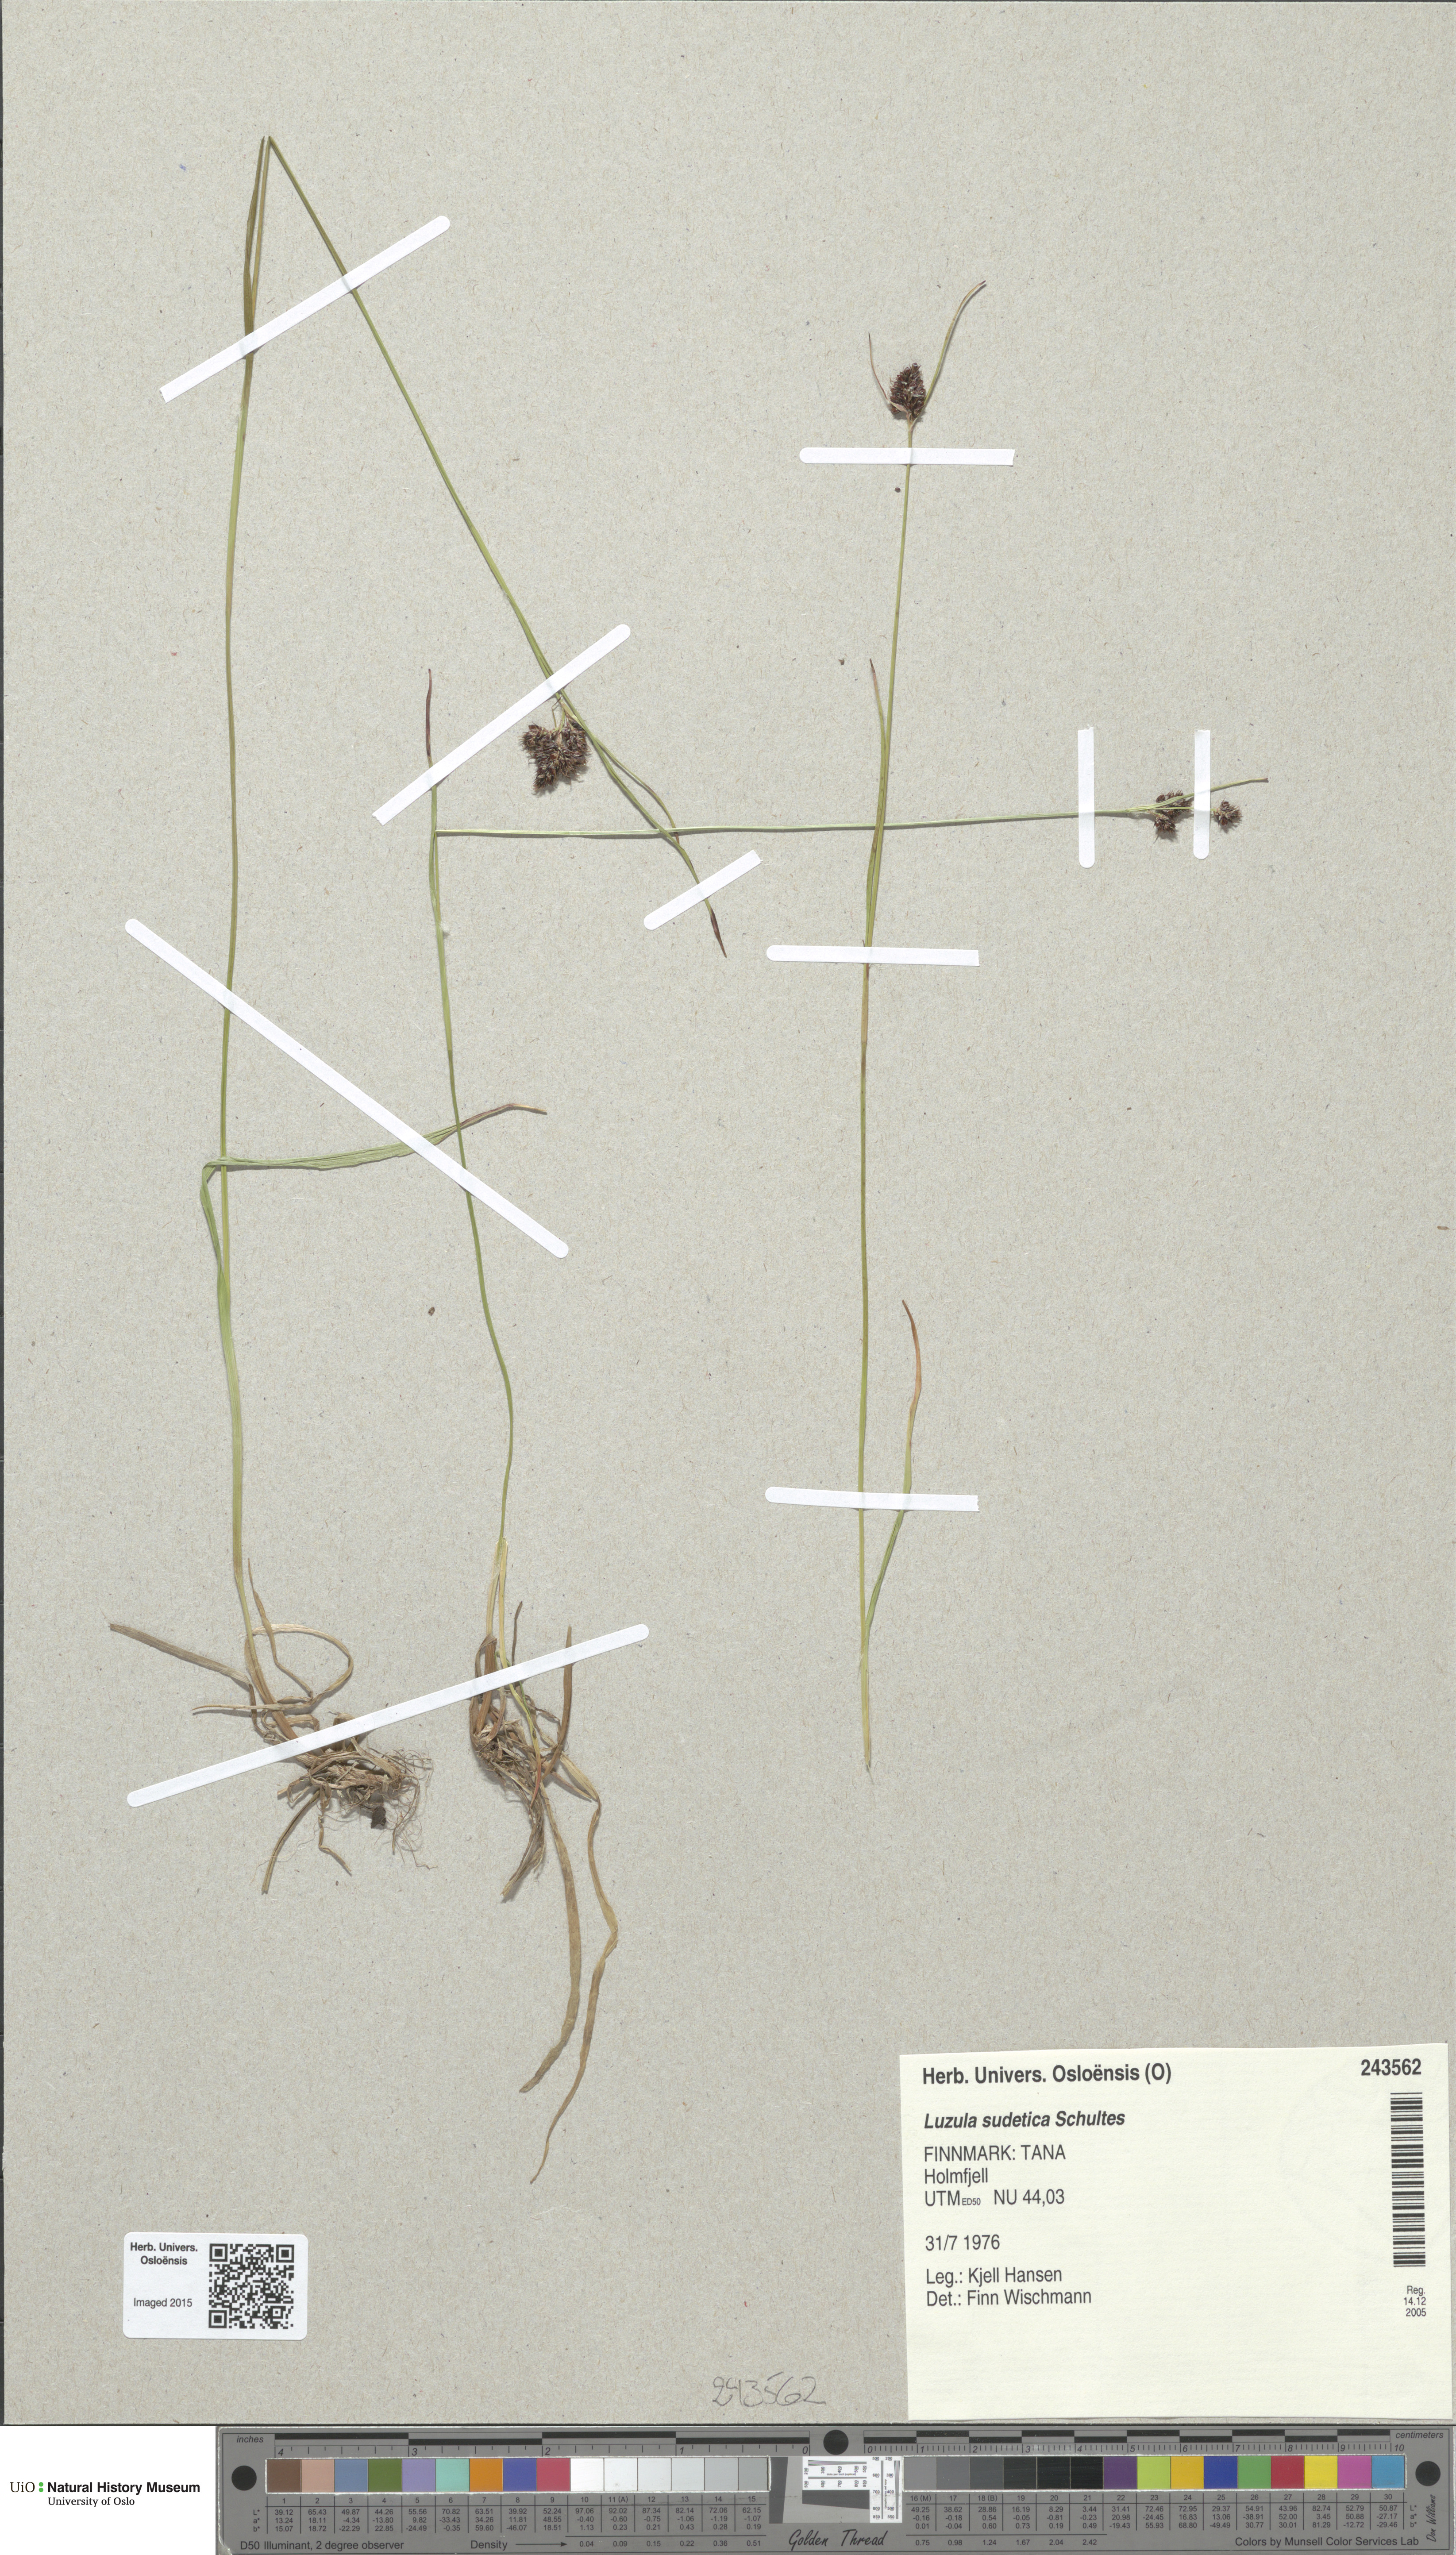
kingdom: Plantae
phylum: Tracheophyta
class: Liliopsida
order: Poales
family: Juncaceae
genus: Luzula
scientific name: Luzula sudetica
